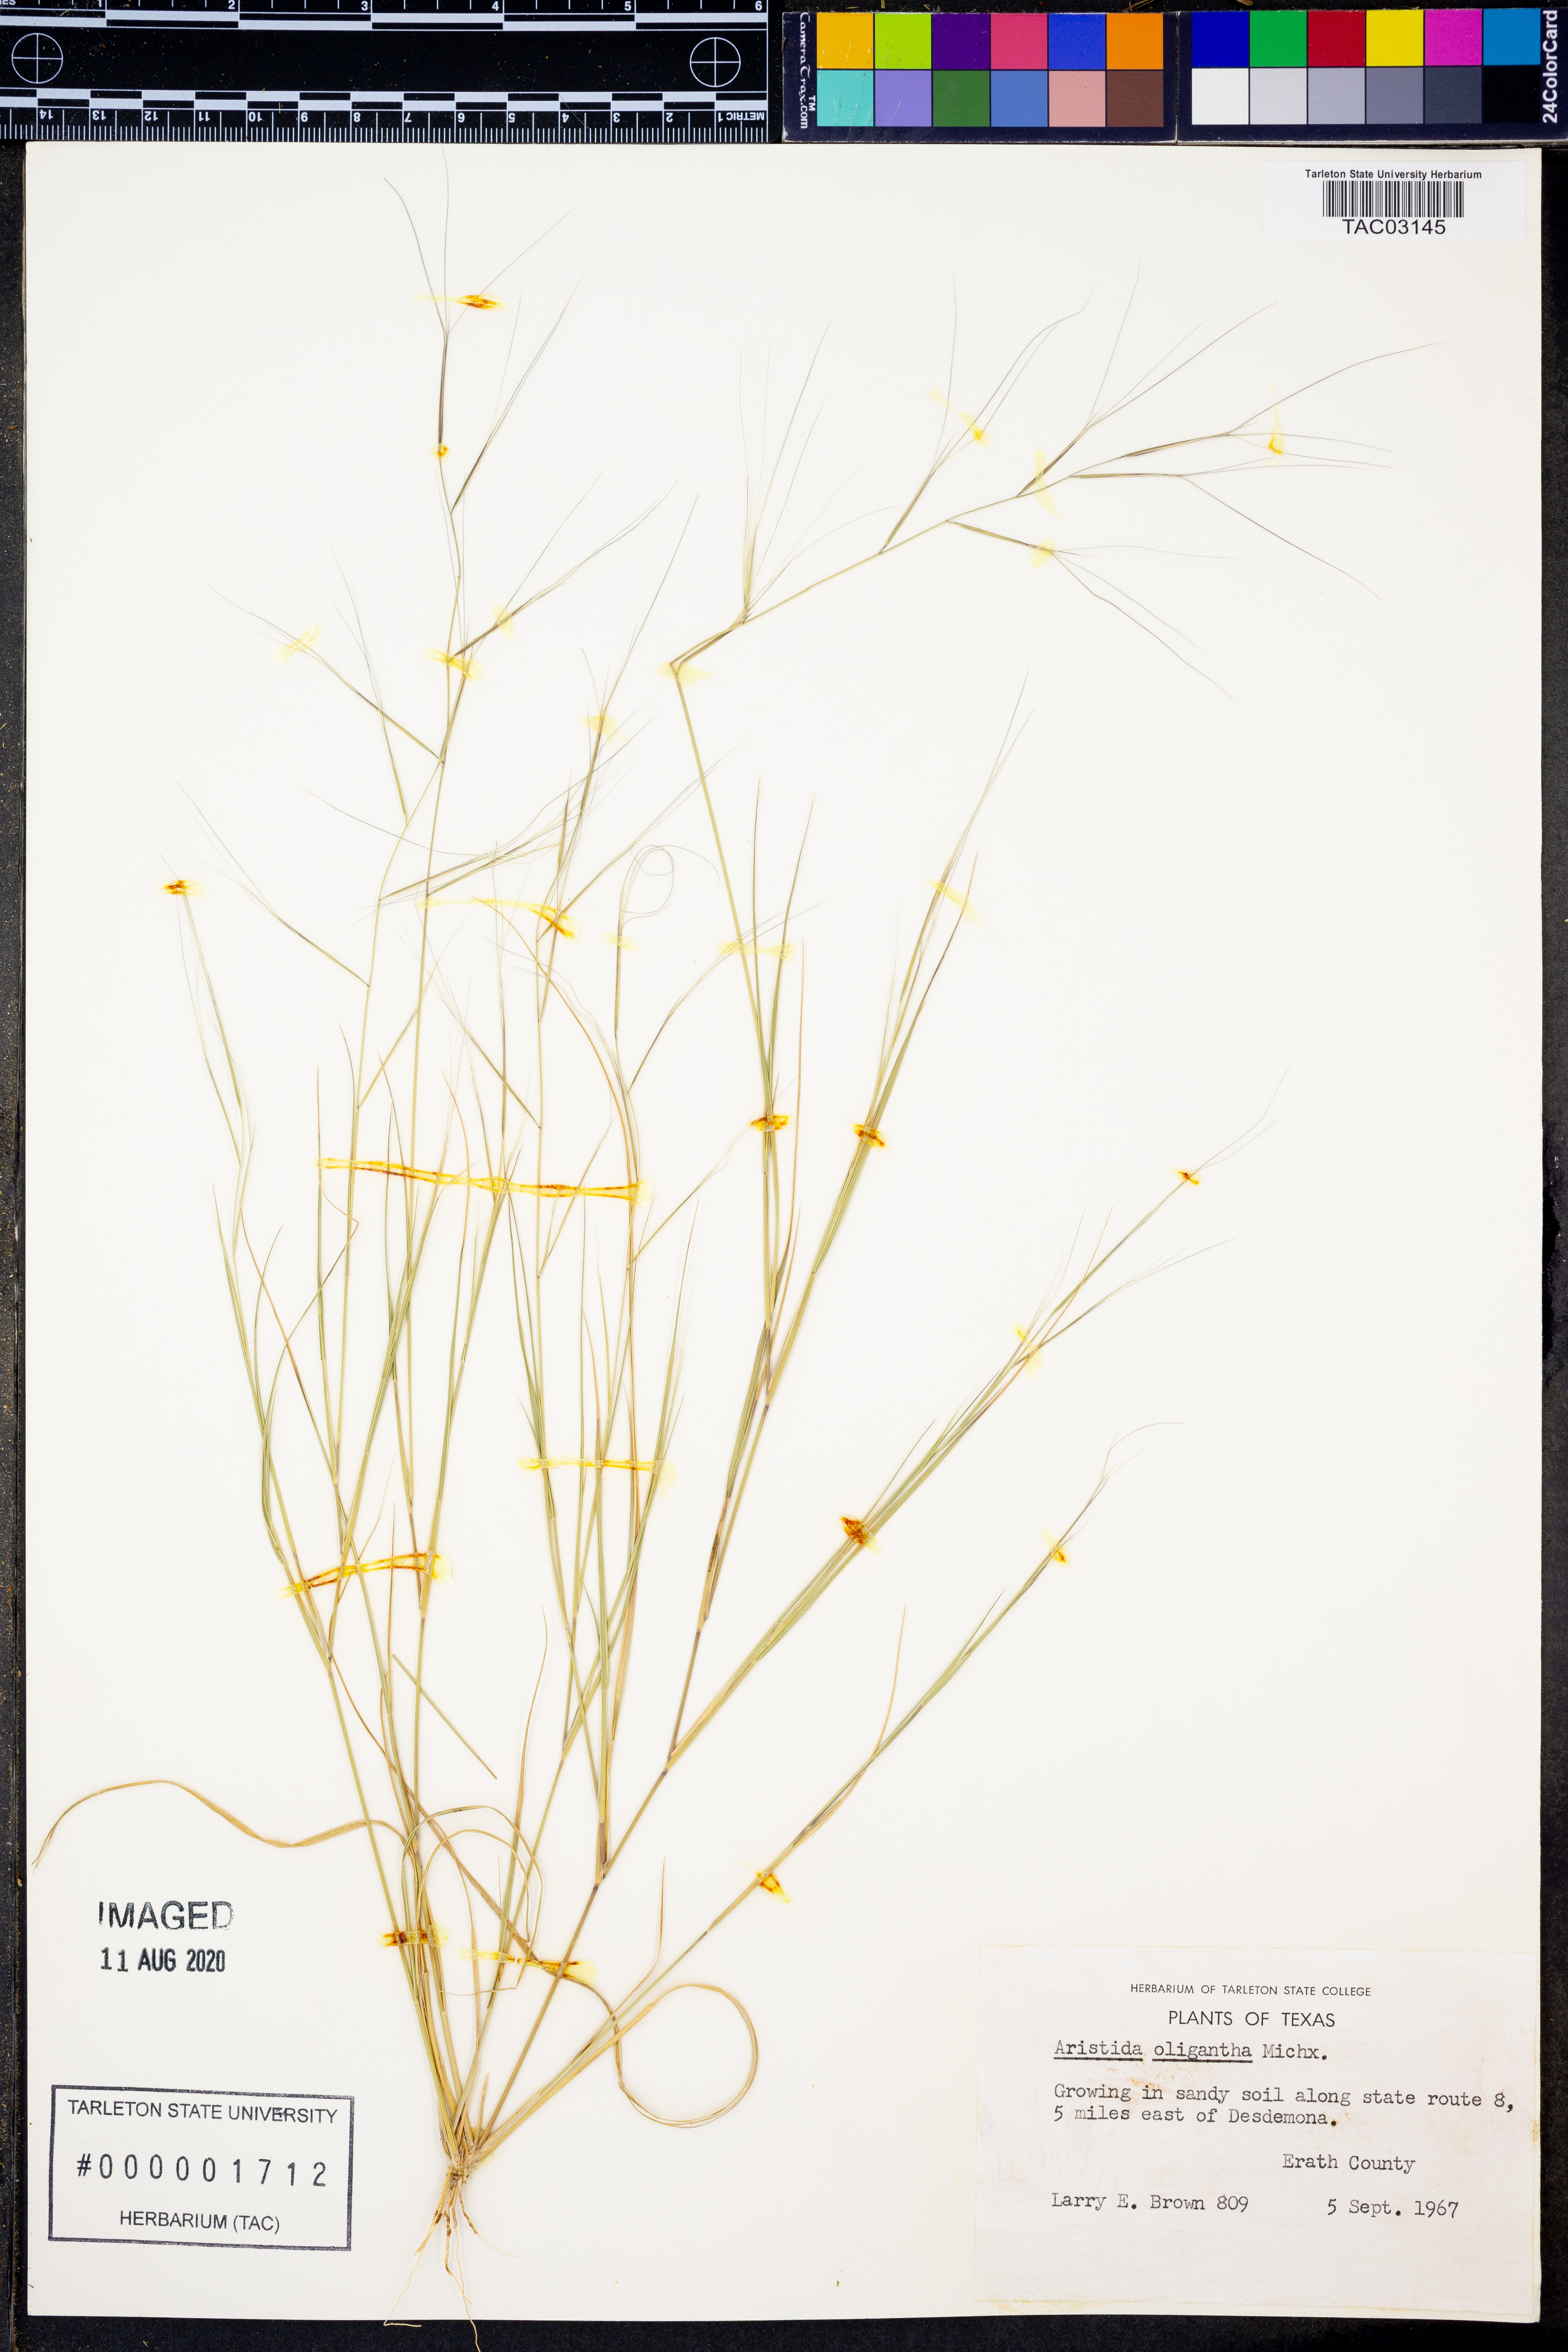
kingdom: Plantae
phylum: Tracheophyta
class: Liliopsida
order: Poales
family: Poaceae
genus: Aristida
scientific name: Aristida oligantha
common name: Few-flowered aristida
